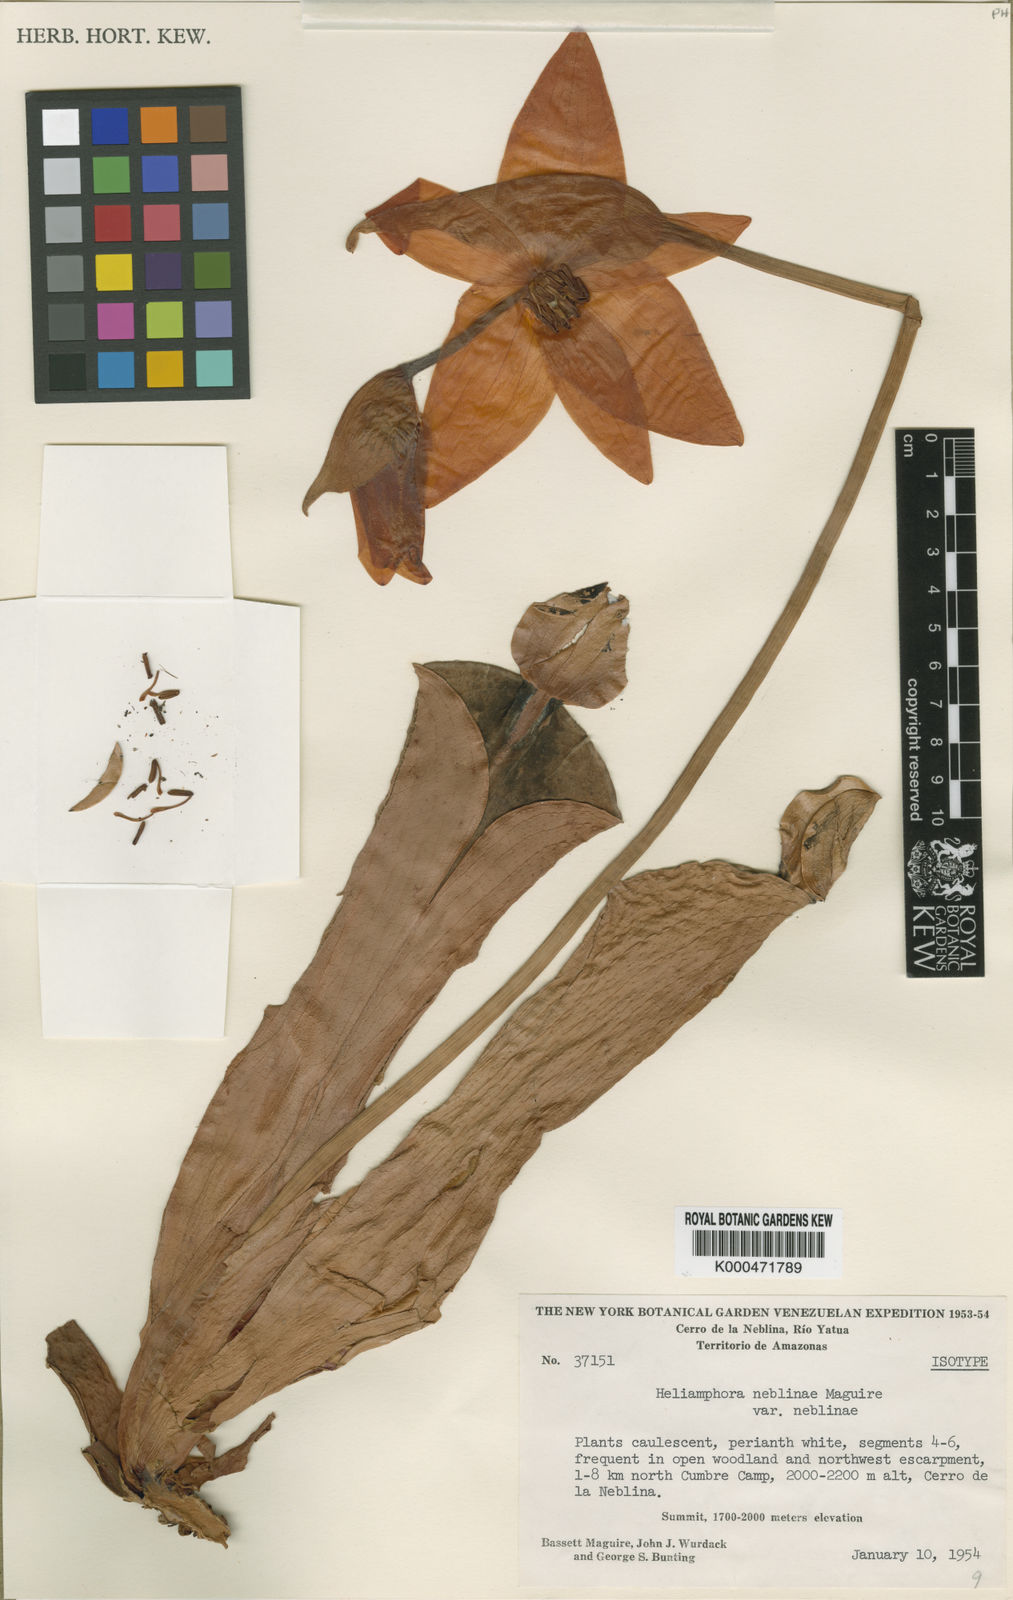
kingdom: Plantae
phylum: Tracheophyta
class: Magnoliopsida
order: Ericales
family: Sarraceniaceae
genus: Heliamphora
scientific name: Heliamphora tatei
